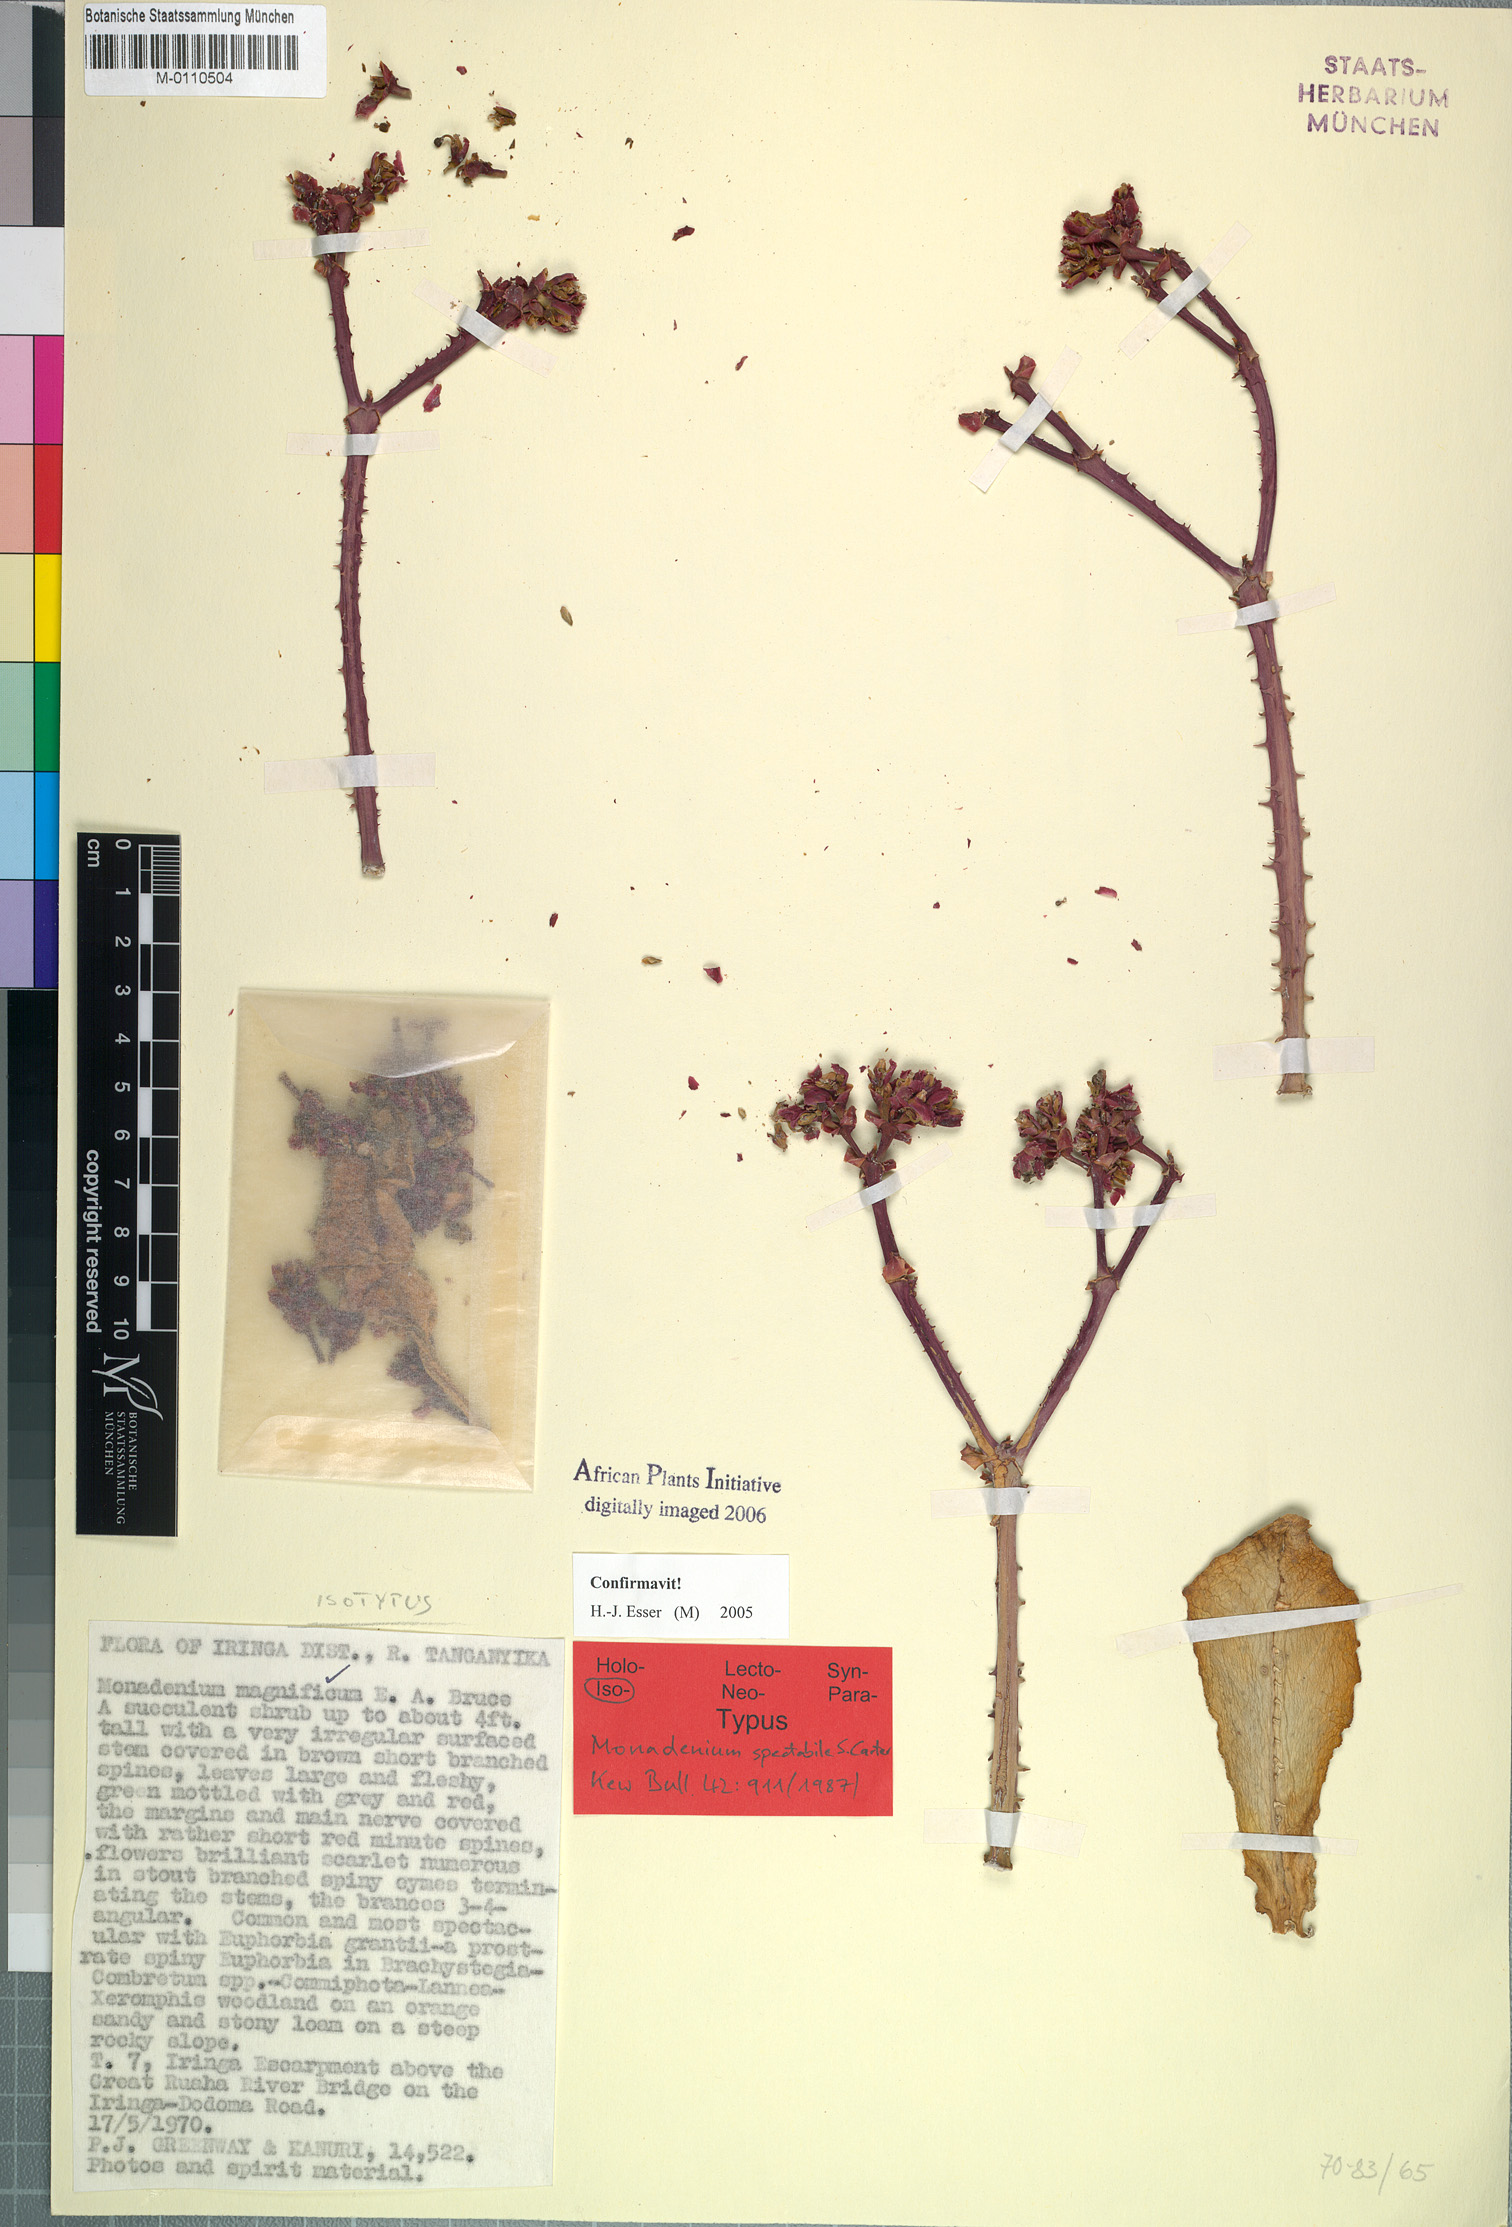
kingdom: Plantae
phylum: Tracheophyta
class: Magnoliopsida
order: Malpighiales
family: Euphorbiaceae
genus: Euphorbia
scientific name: Euphorbia spectabilis
